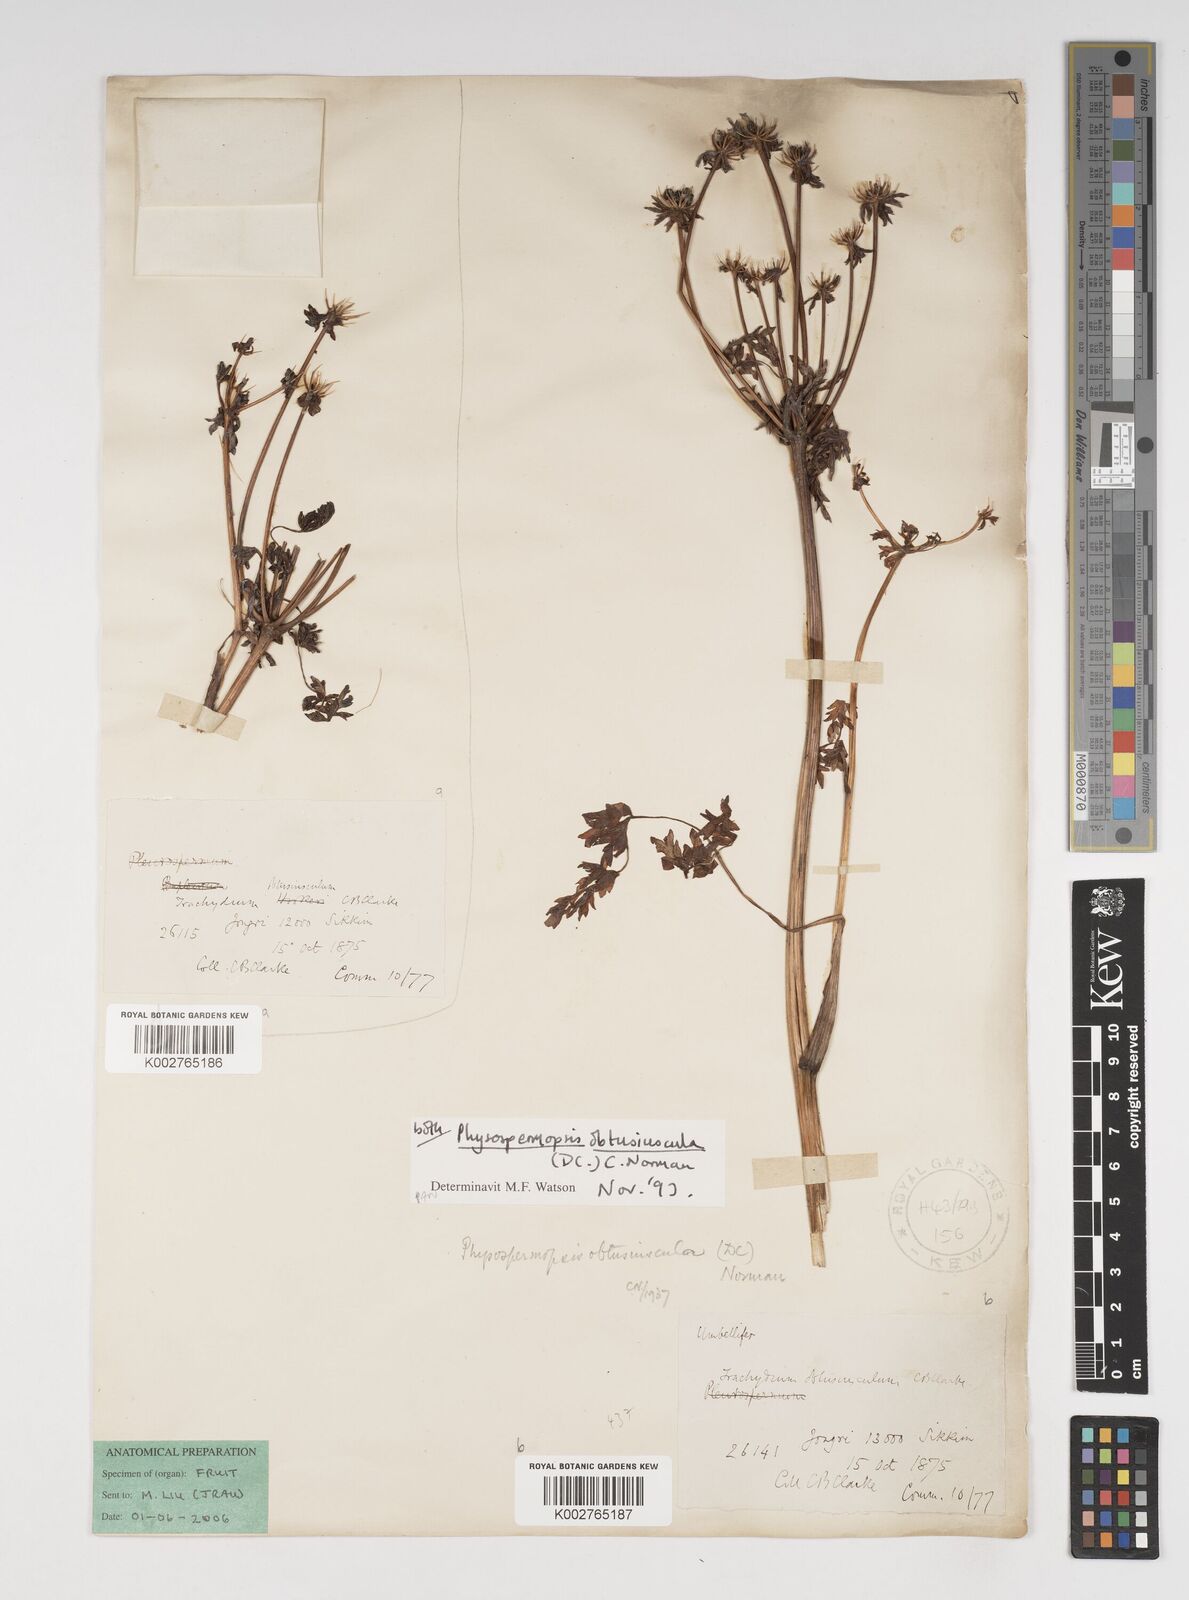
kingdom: Plantae
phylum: Tracheophyta
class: Magnoliopsida
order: Apiales
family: Apiaceae
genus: Pleurospermopsis
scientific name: Pleurospermopsis
